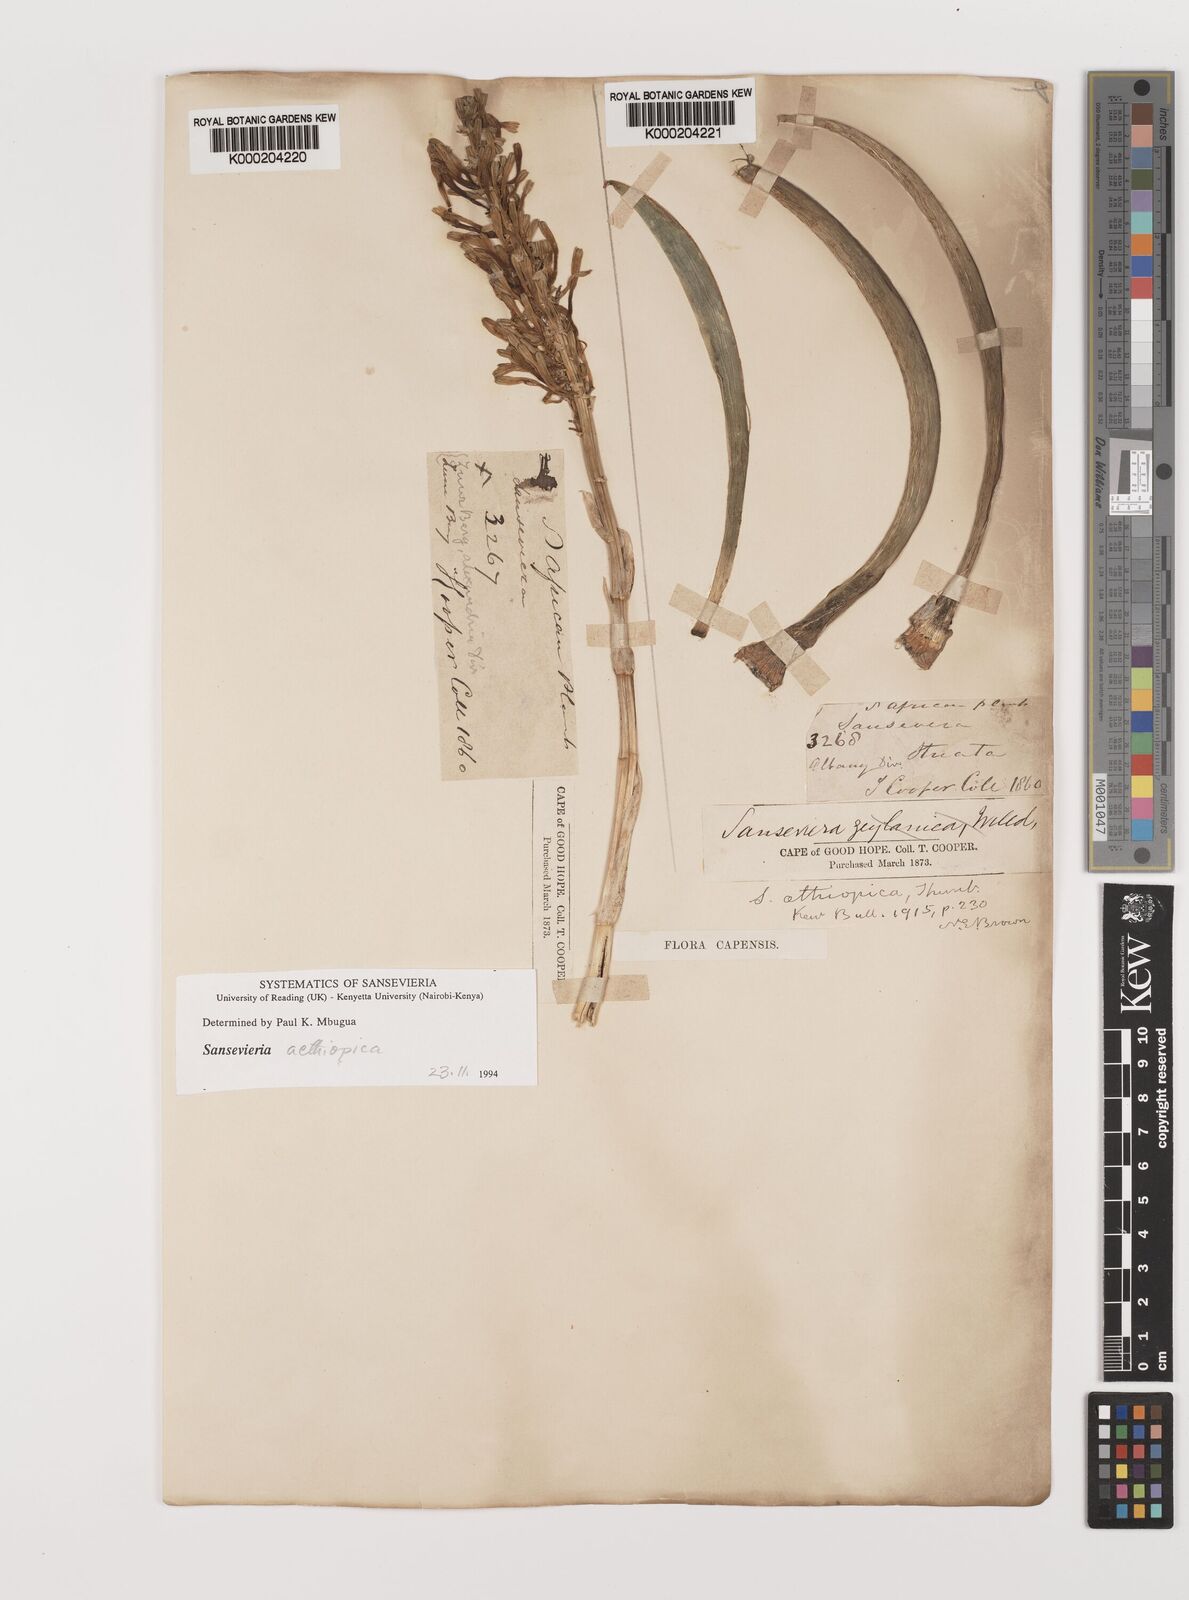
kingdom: Plantae
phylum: Tracheophyta
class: Liliopsida
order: Asparagales
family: Asparagaceae
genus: Dracaena
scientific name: Dracaena aethiopica
